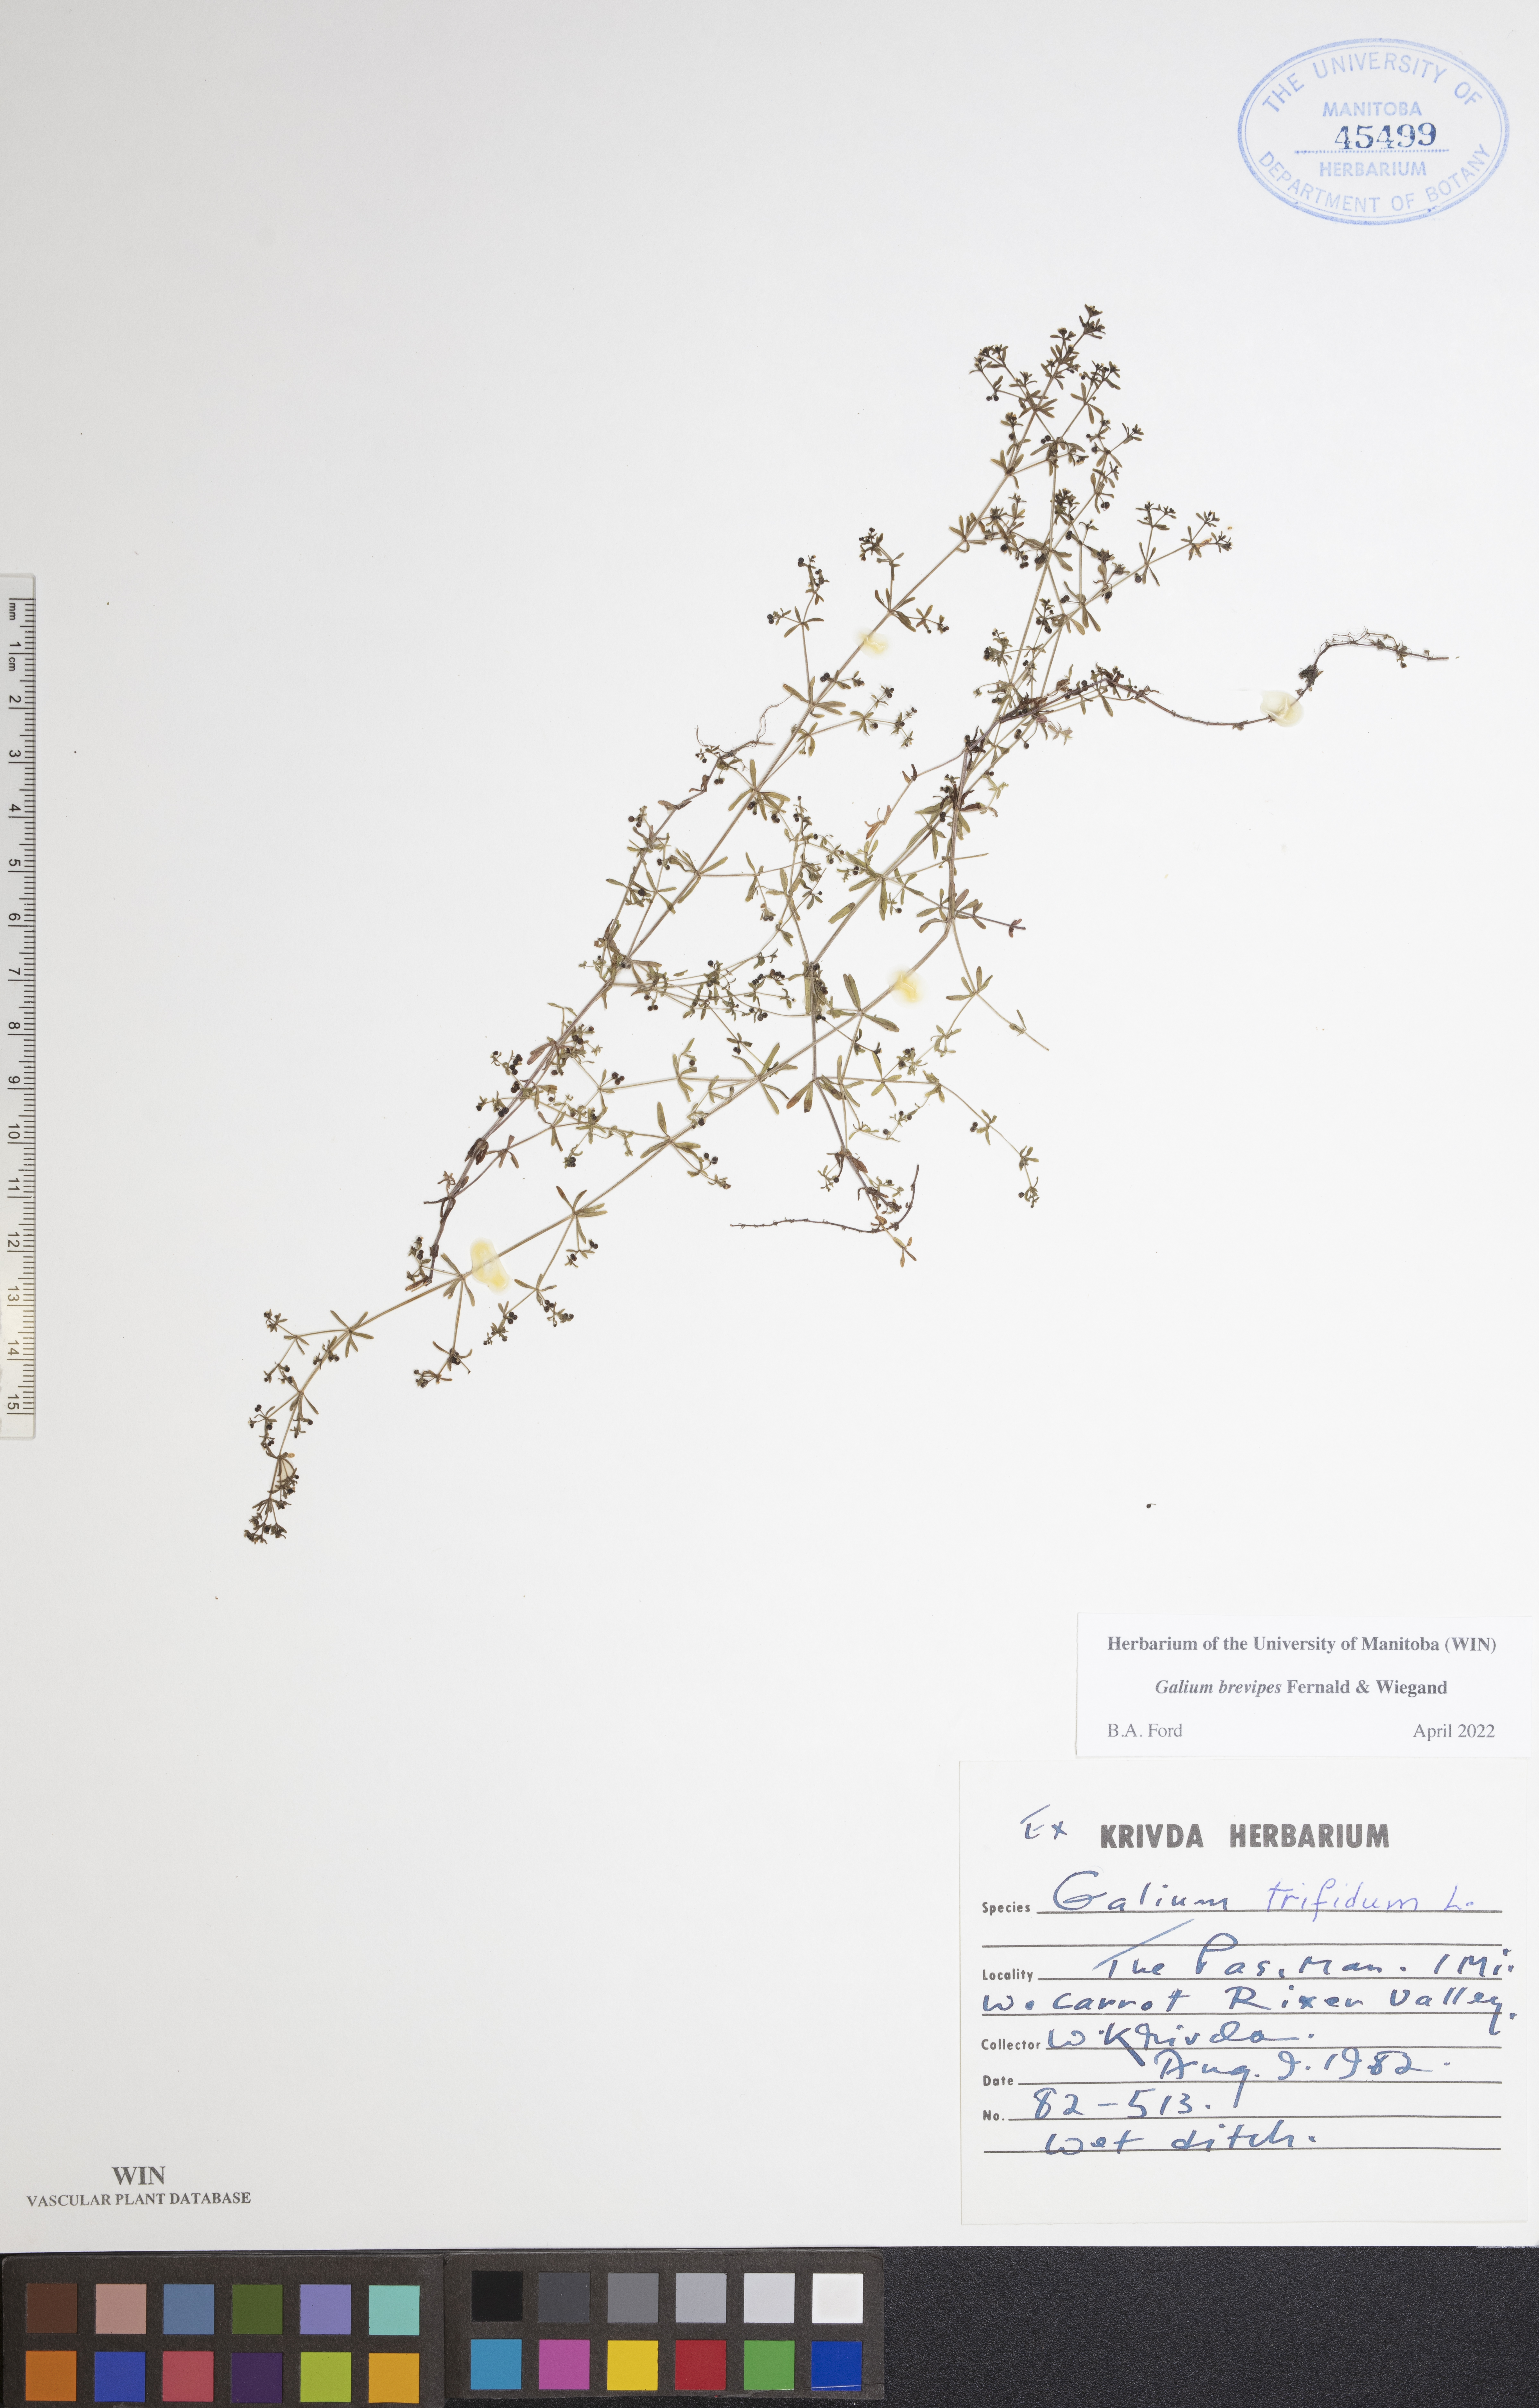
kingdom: Plantae
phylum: Tracheophyta
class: Magnoliopsida
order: Gentianales
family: Rubiaceae
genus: Galium
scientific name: Galium domingense
